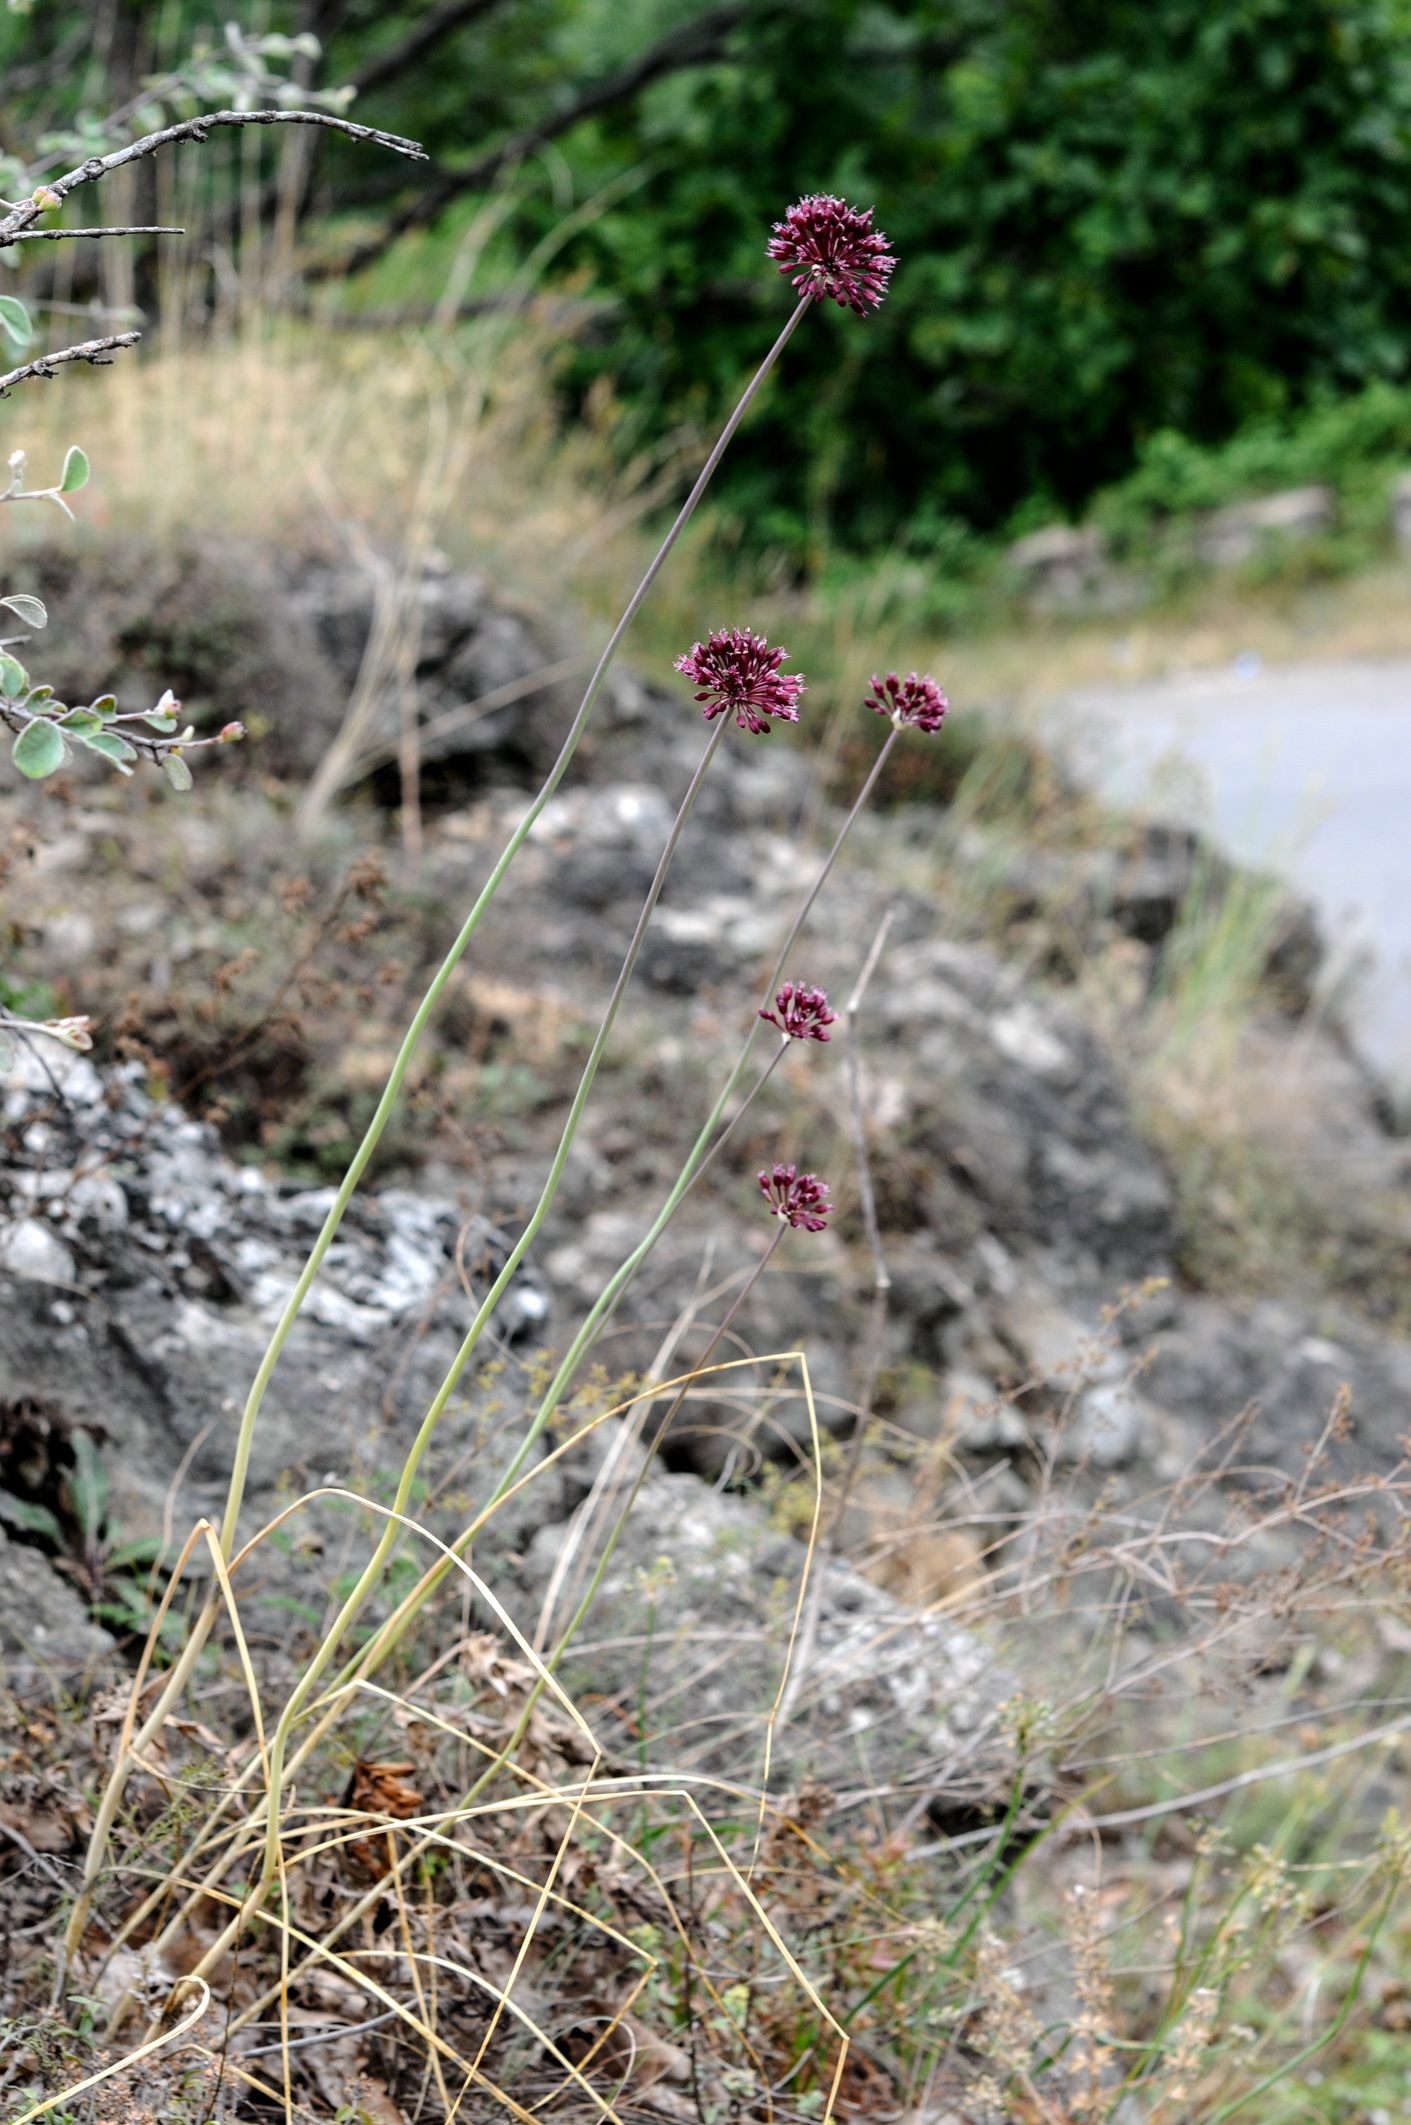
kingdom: Plantae
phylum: Tracheophyta
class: Liliopsida
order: Asparagales
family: Amaryllidaceae
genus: Allium
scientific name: Allium rotundum
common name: Sand leek
